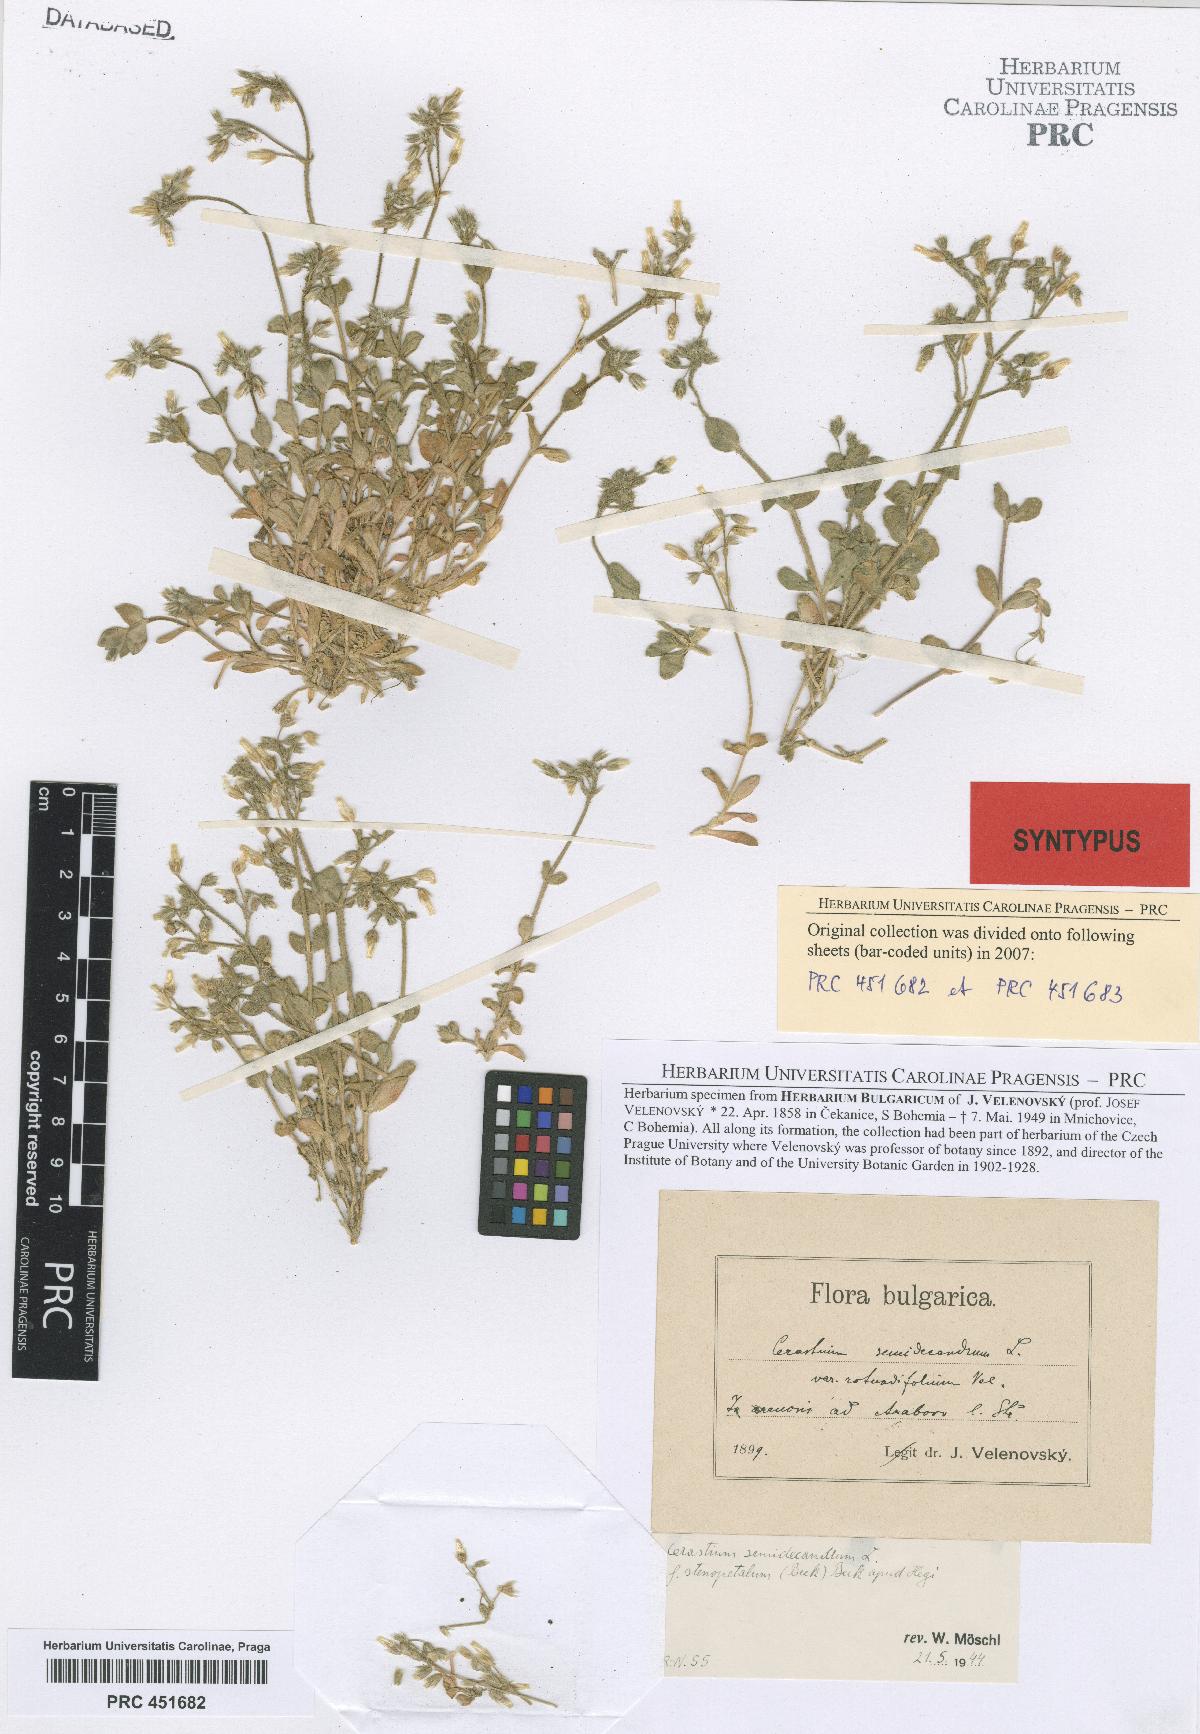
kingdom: Plantae
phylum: Tracheophyta
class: Magnoliopsida
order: Caryophyllales
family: Caryophyllaceae
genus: Cerastium
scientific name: Cerastium semidecandrum
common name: Little mouse-ear
